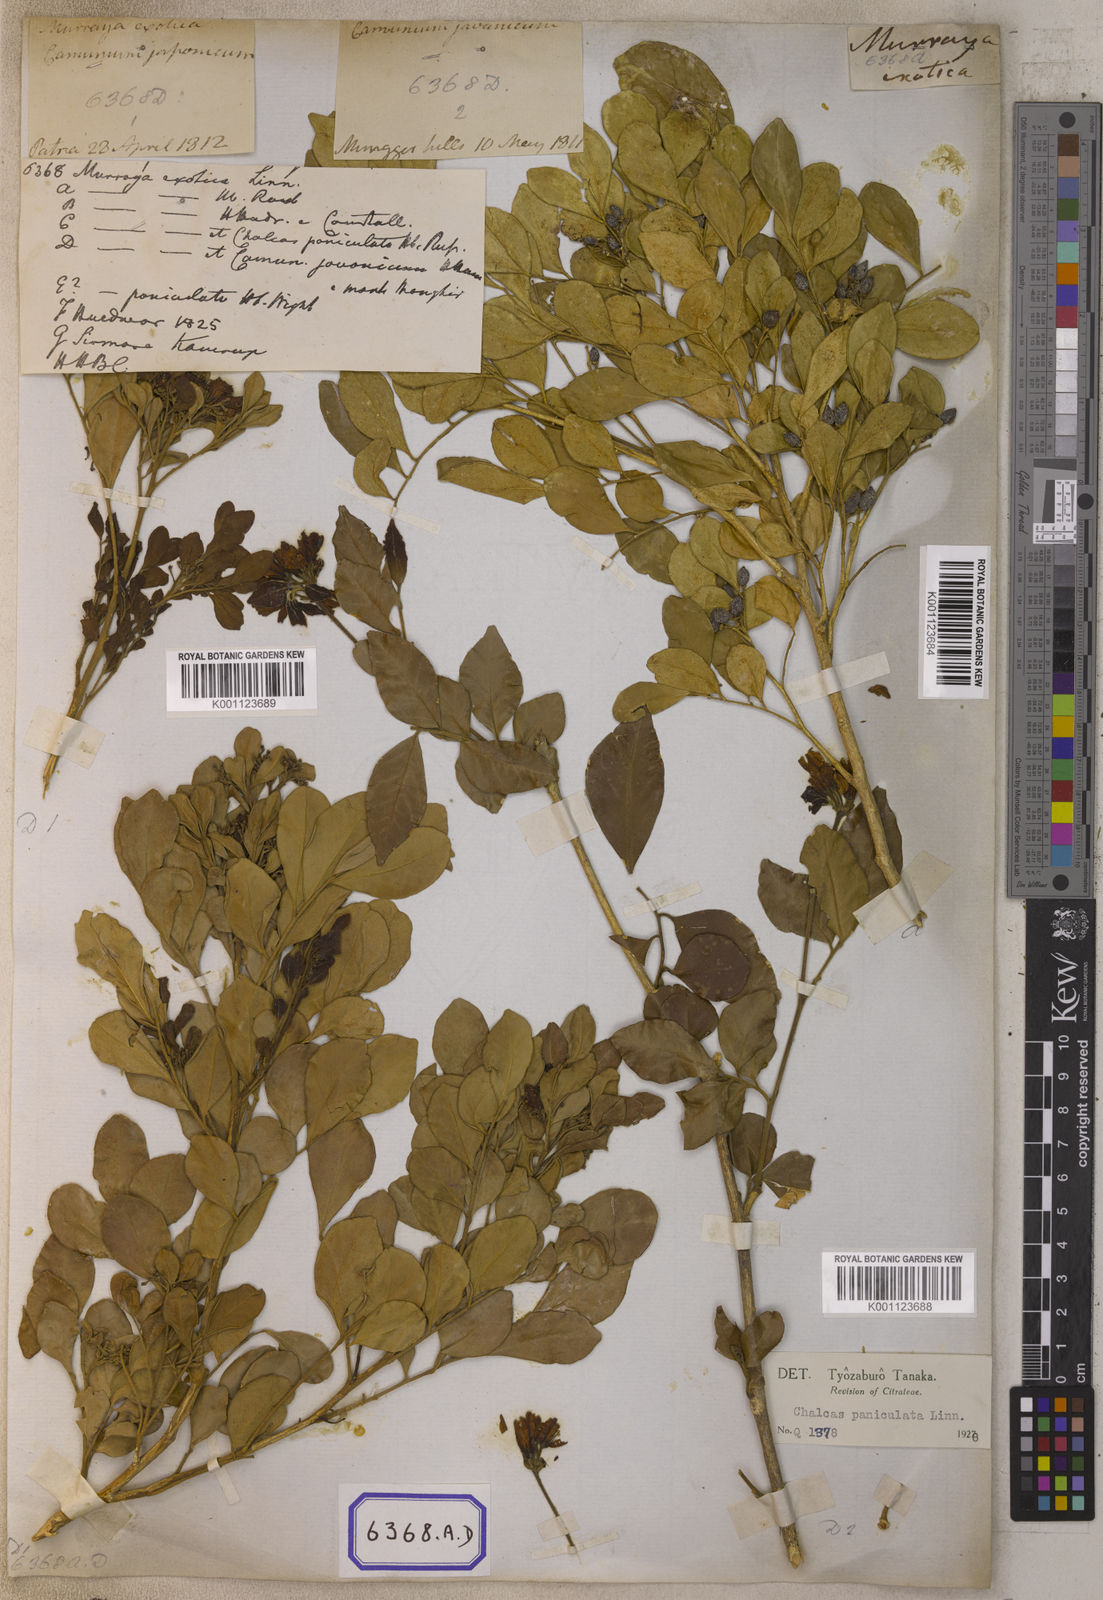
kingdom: Plantae
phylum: Tracheophyta
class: Magnoliopsida
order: Sapindales
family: Rutaceae
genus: Murraya
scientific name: Murraya paniculata
